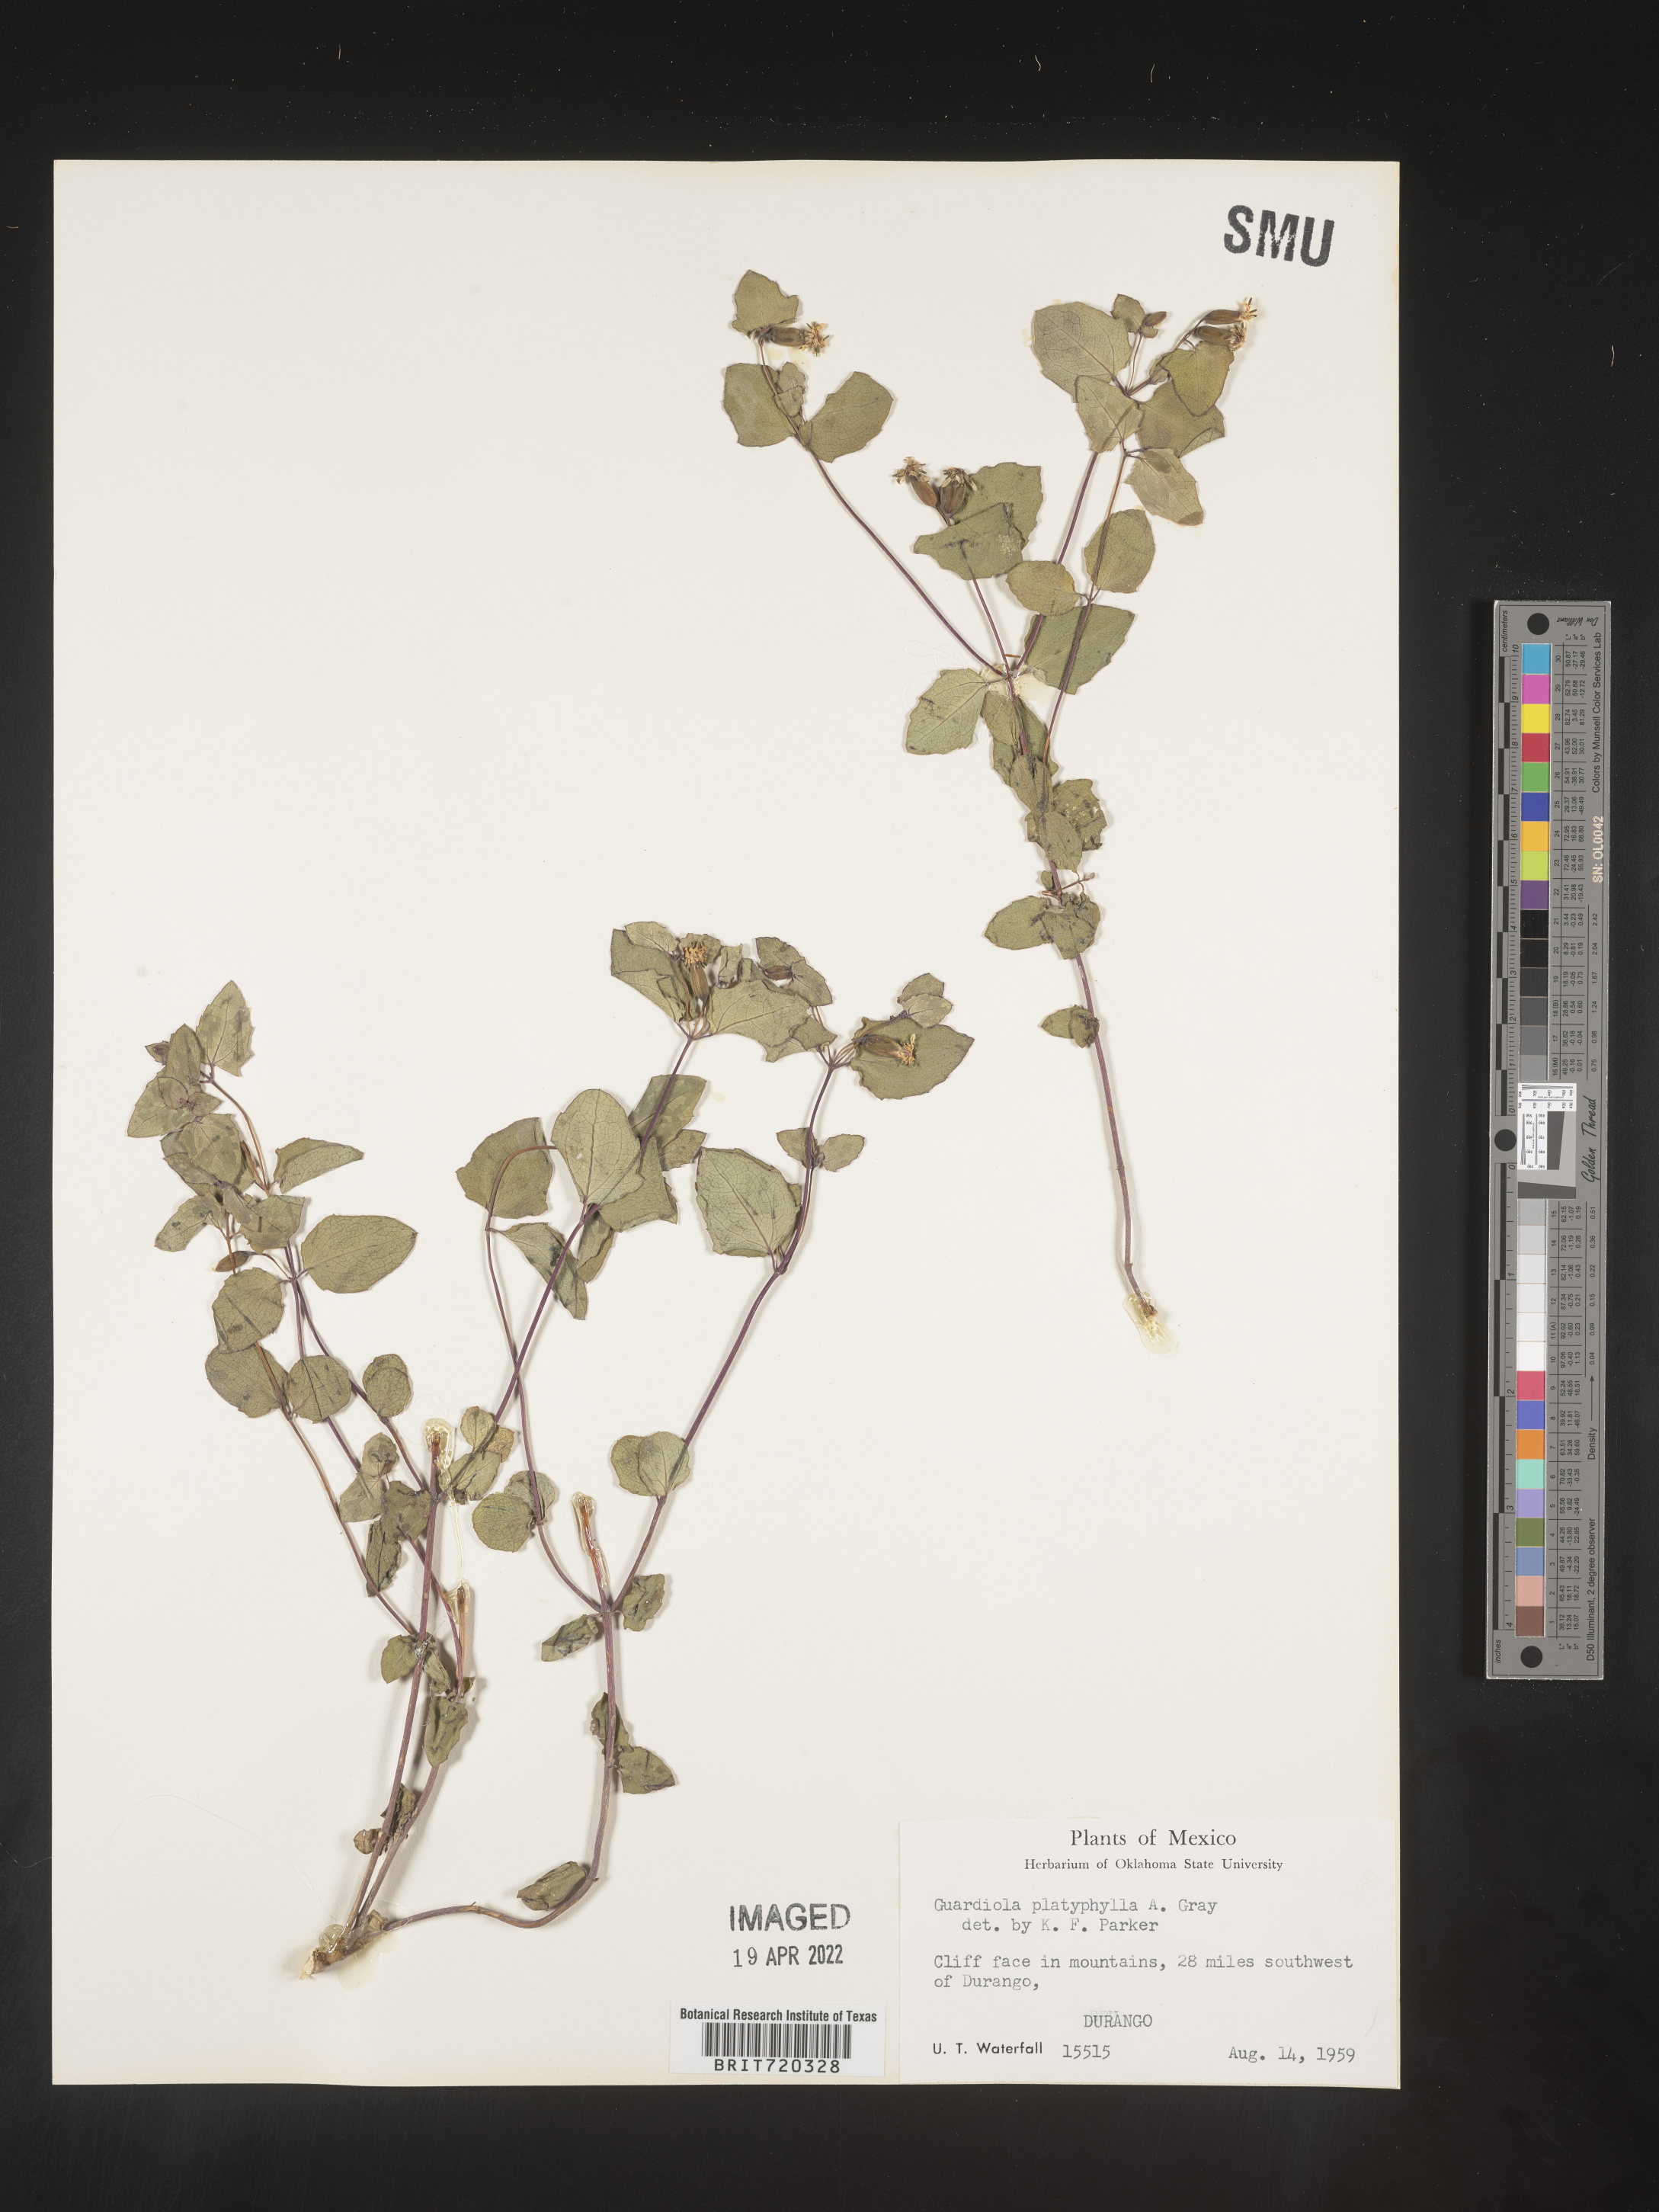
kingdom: Plantae
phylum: Tracheophyta
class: Magnoliopsida
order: Asterales
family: Asteraceae
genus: Guardiola
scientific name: Guardiola
